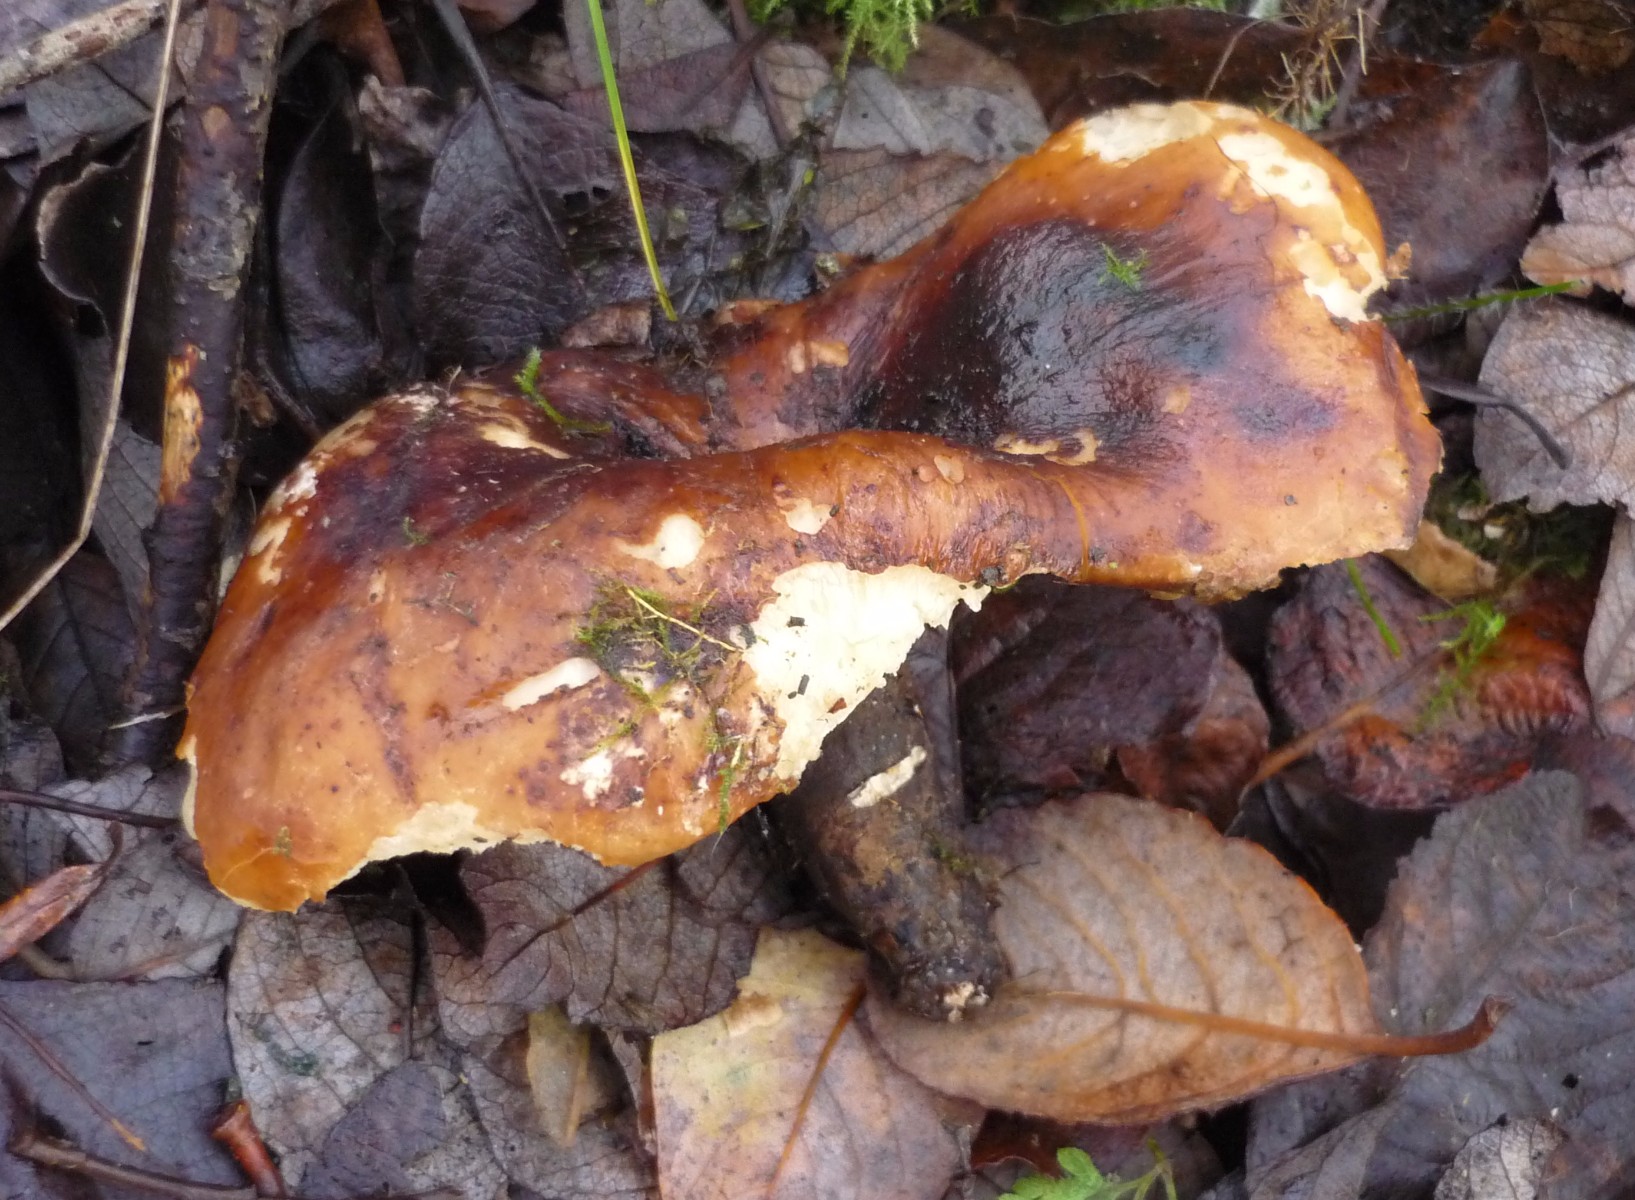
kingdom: Fungi
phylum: Basidiomycota
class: Agaricomycetes
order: Polyporales
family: Polyporaceae
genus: Picipes
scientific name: Picipes
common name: stilkporesvamp
